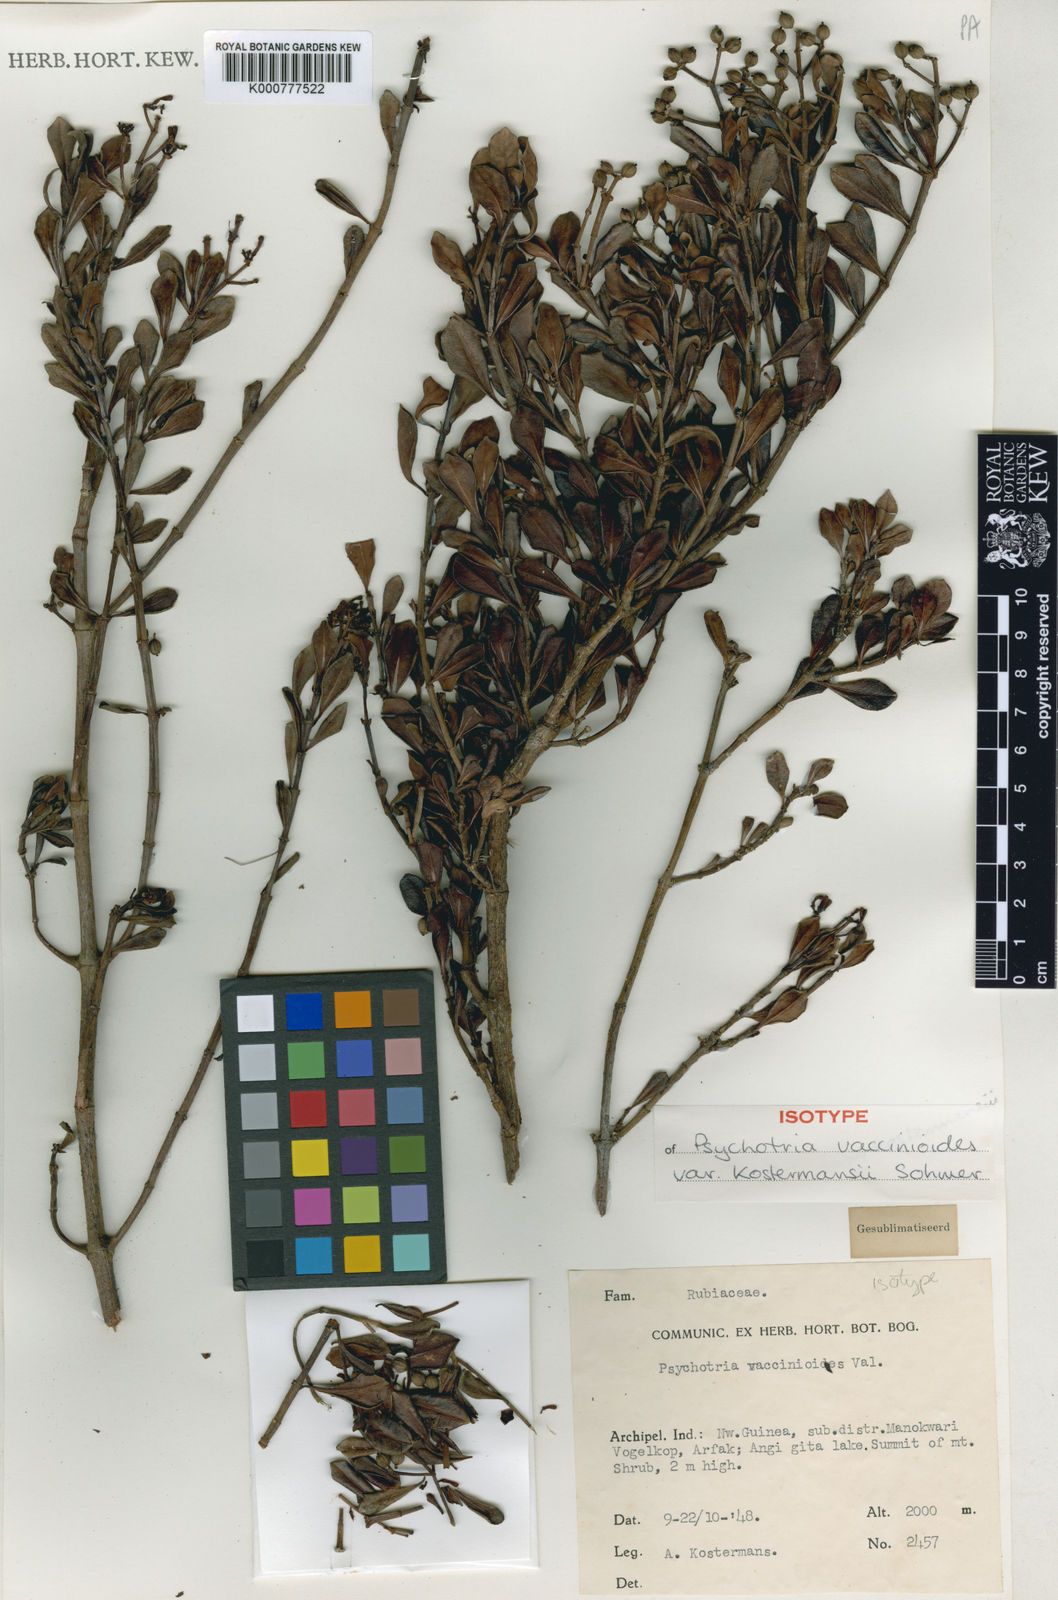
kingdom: Plantae
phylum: Tracheophyta
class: Magnoliopsida
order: Gentianales
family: Rubiaceae
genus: Psychotria
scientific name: Psychotria vaccinioides
